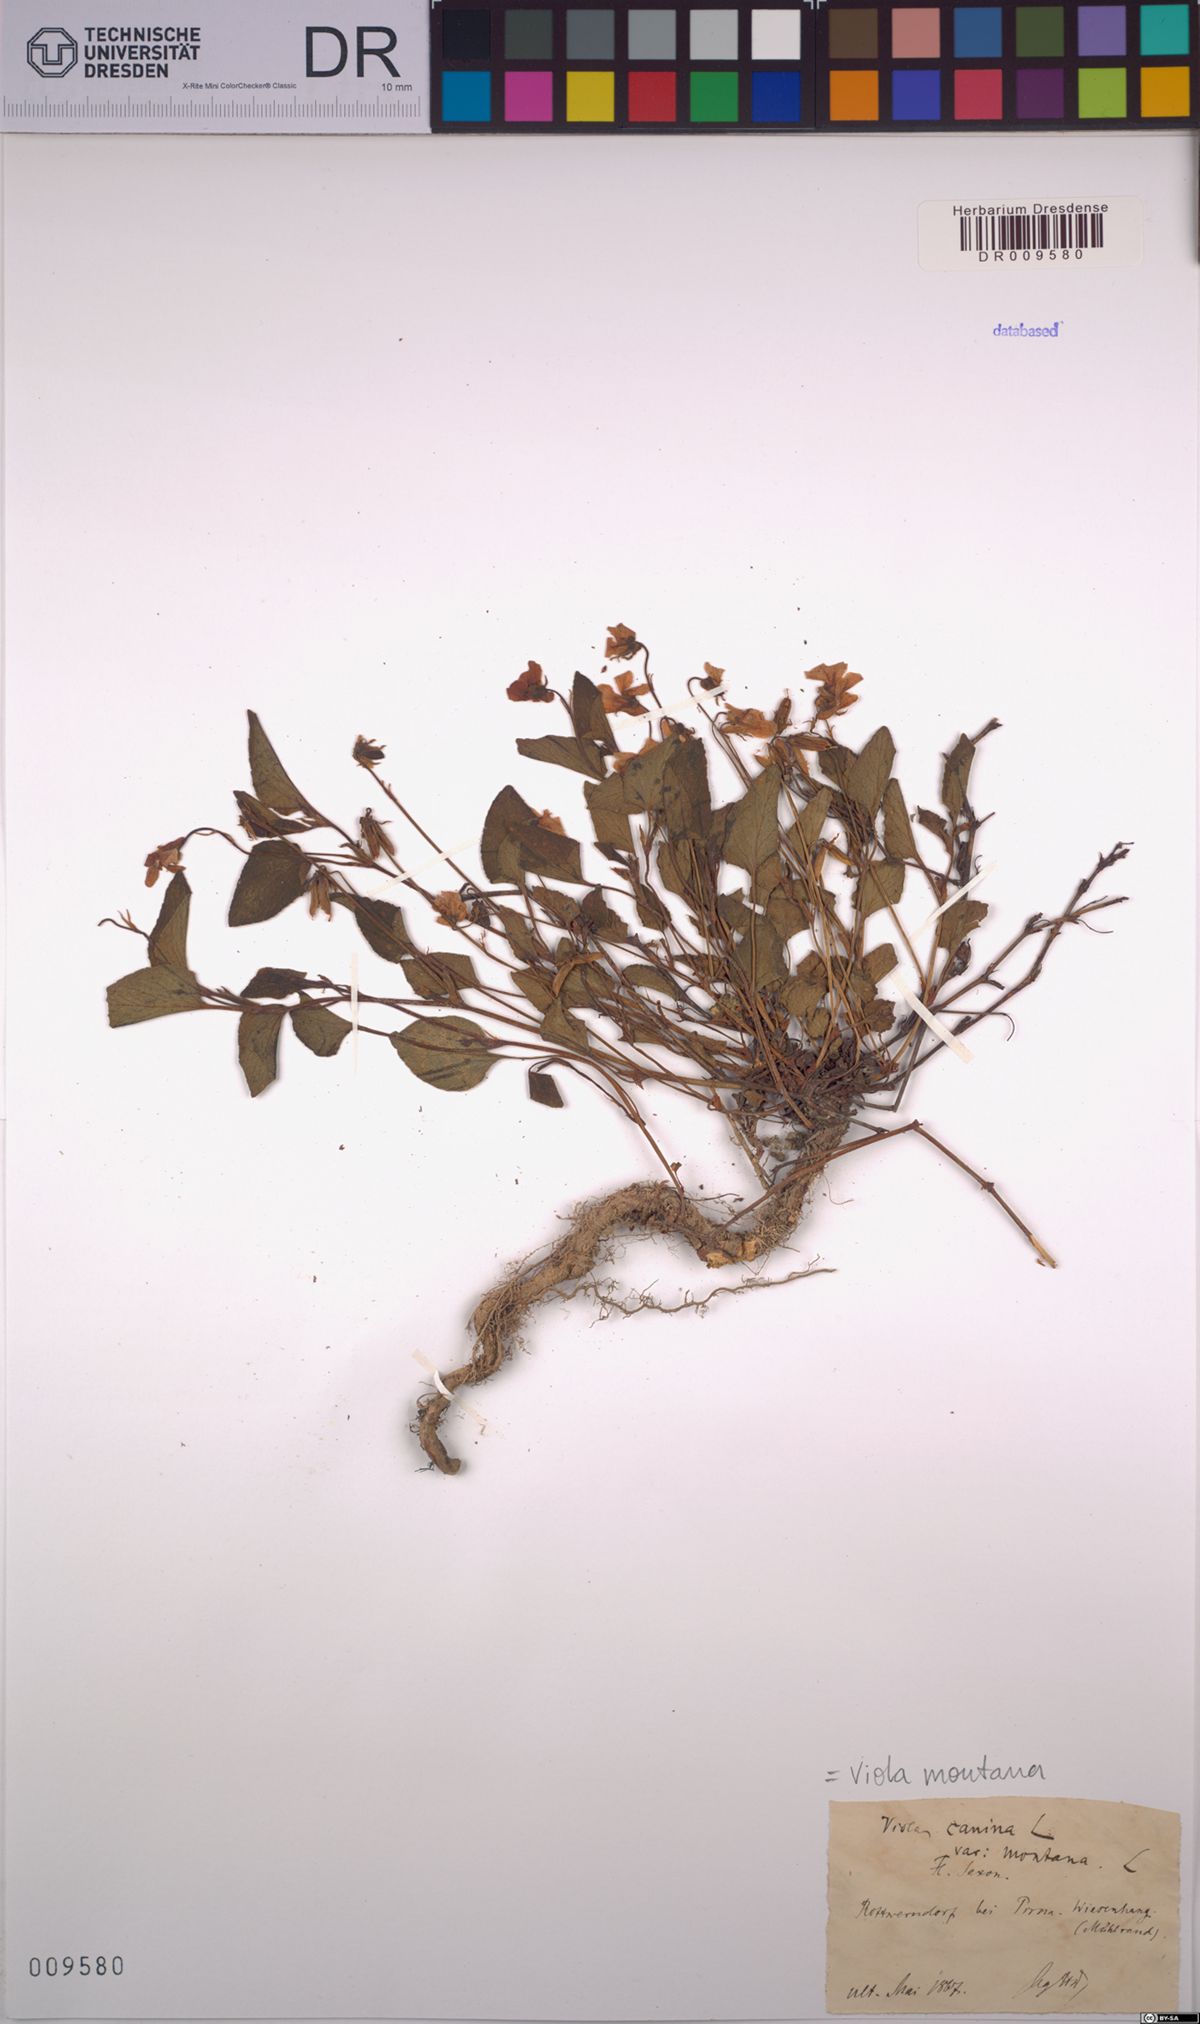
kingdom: Plantae
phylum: Tracheophyta
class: Magnoliopsida
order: Malpighiales
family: Violaceae
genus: Viola
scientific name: Viola ruppii
